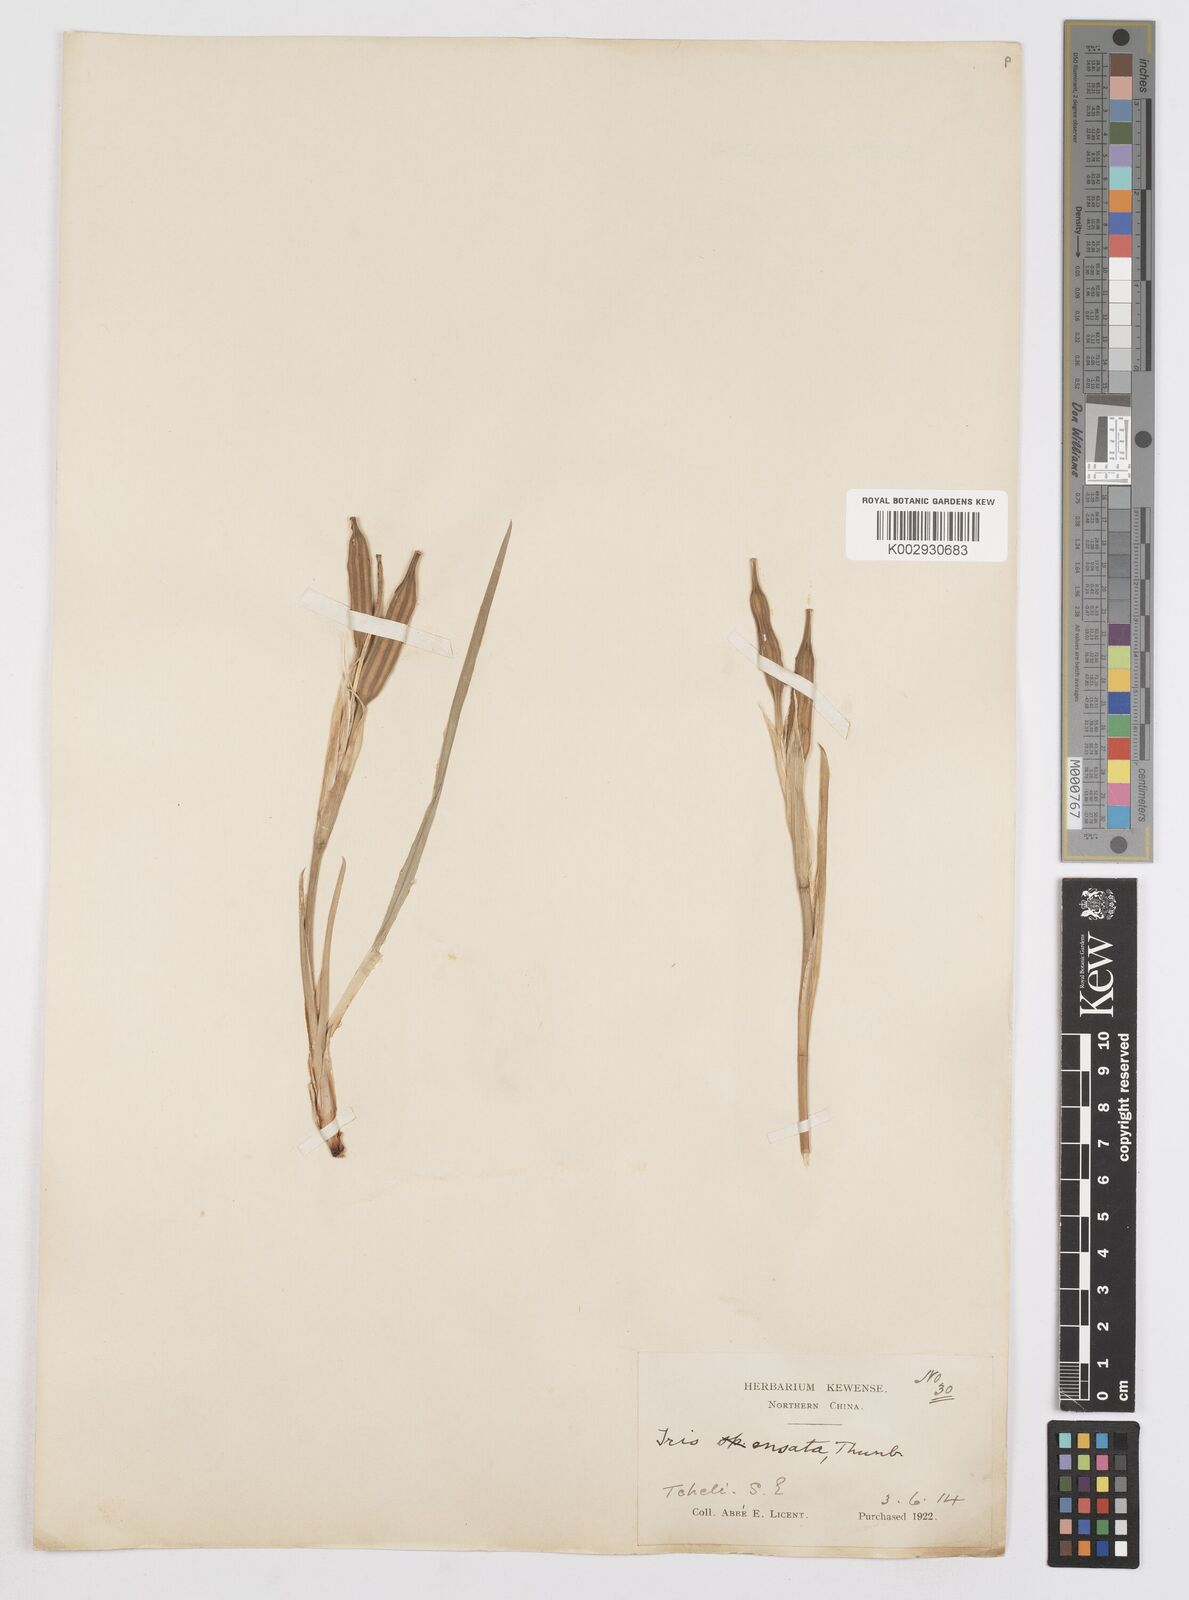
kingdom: Plantae
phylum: Tracheophyta
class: Liliopsida
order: Asparagales
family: Iridaceae
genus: Iris
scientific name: Iris ensata
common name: Beaked iris
